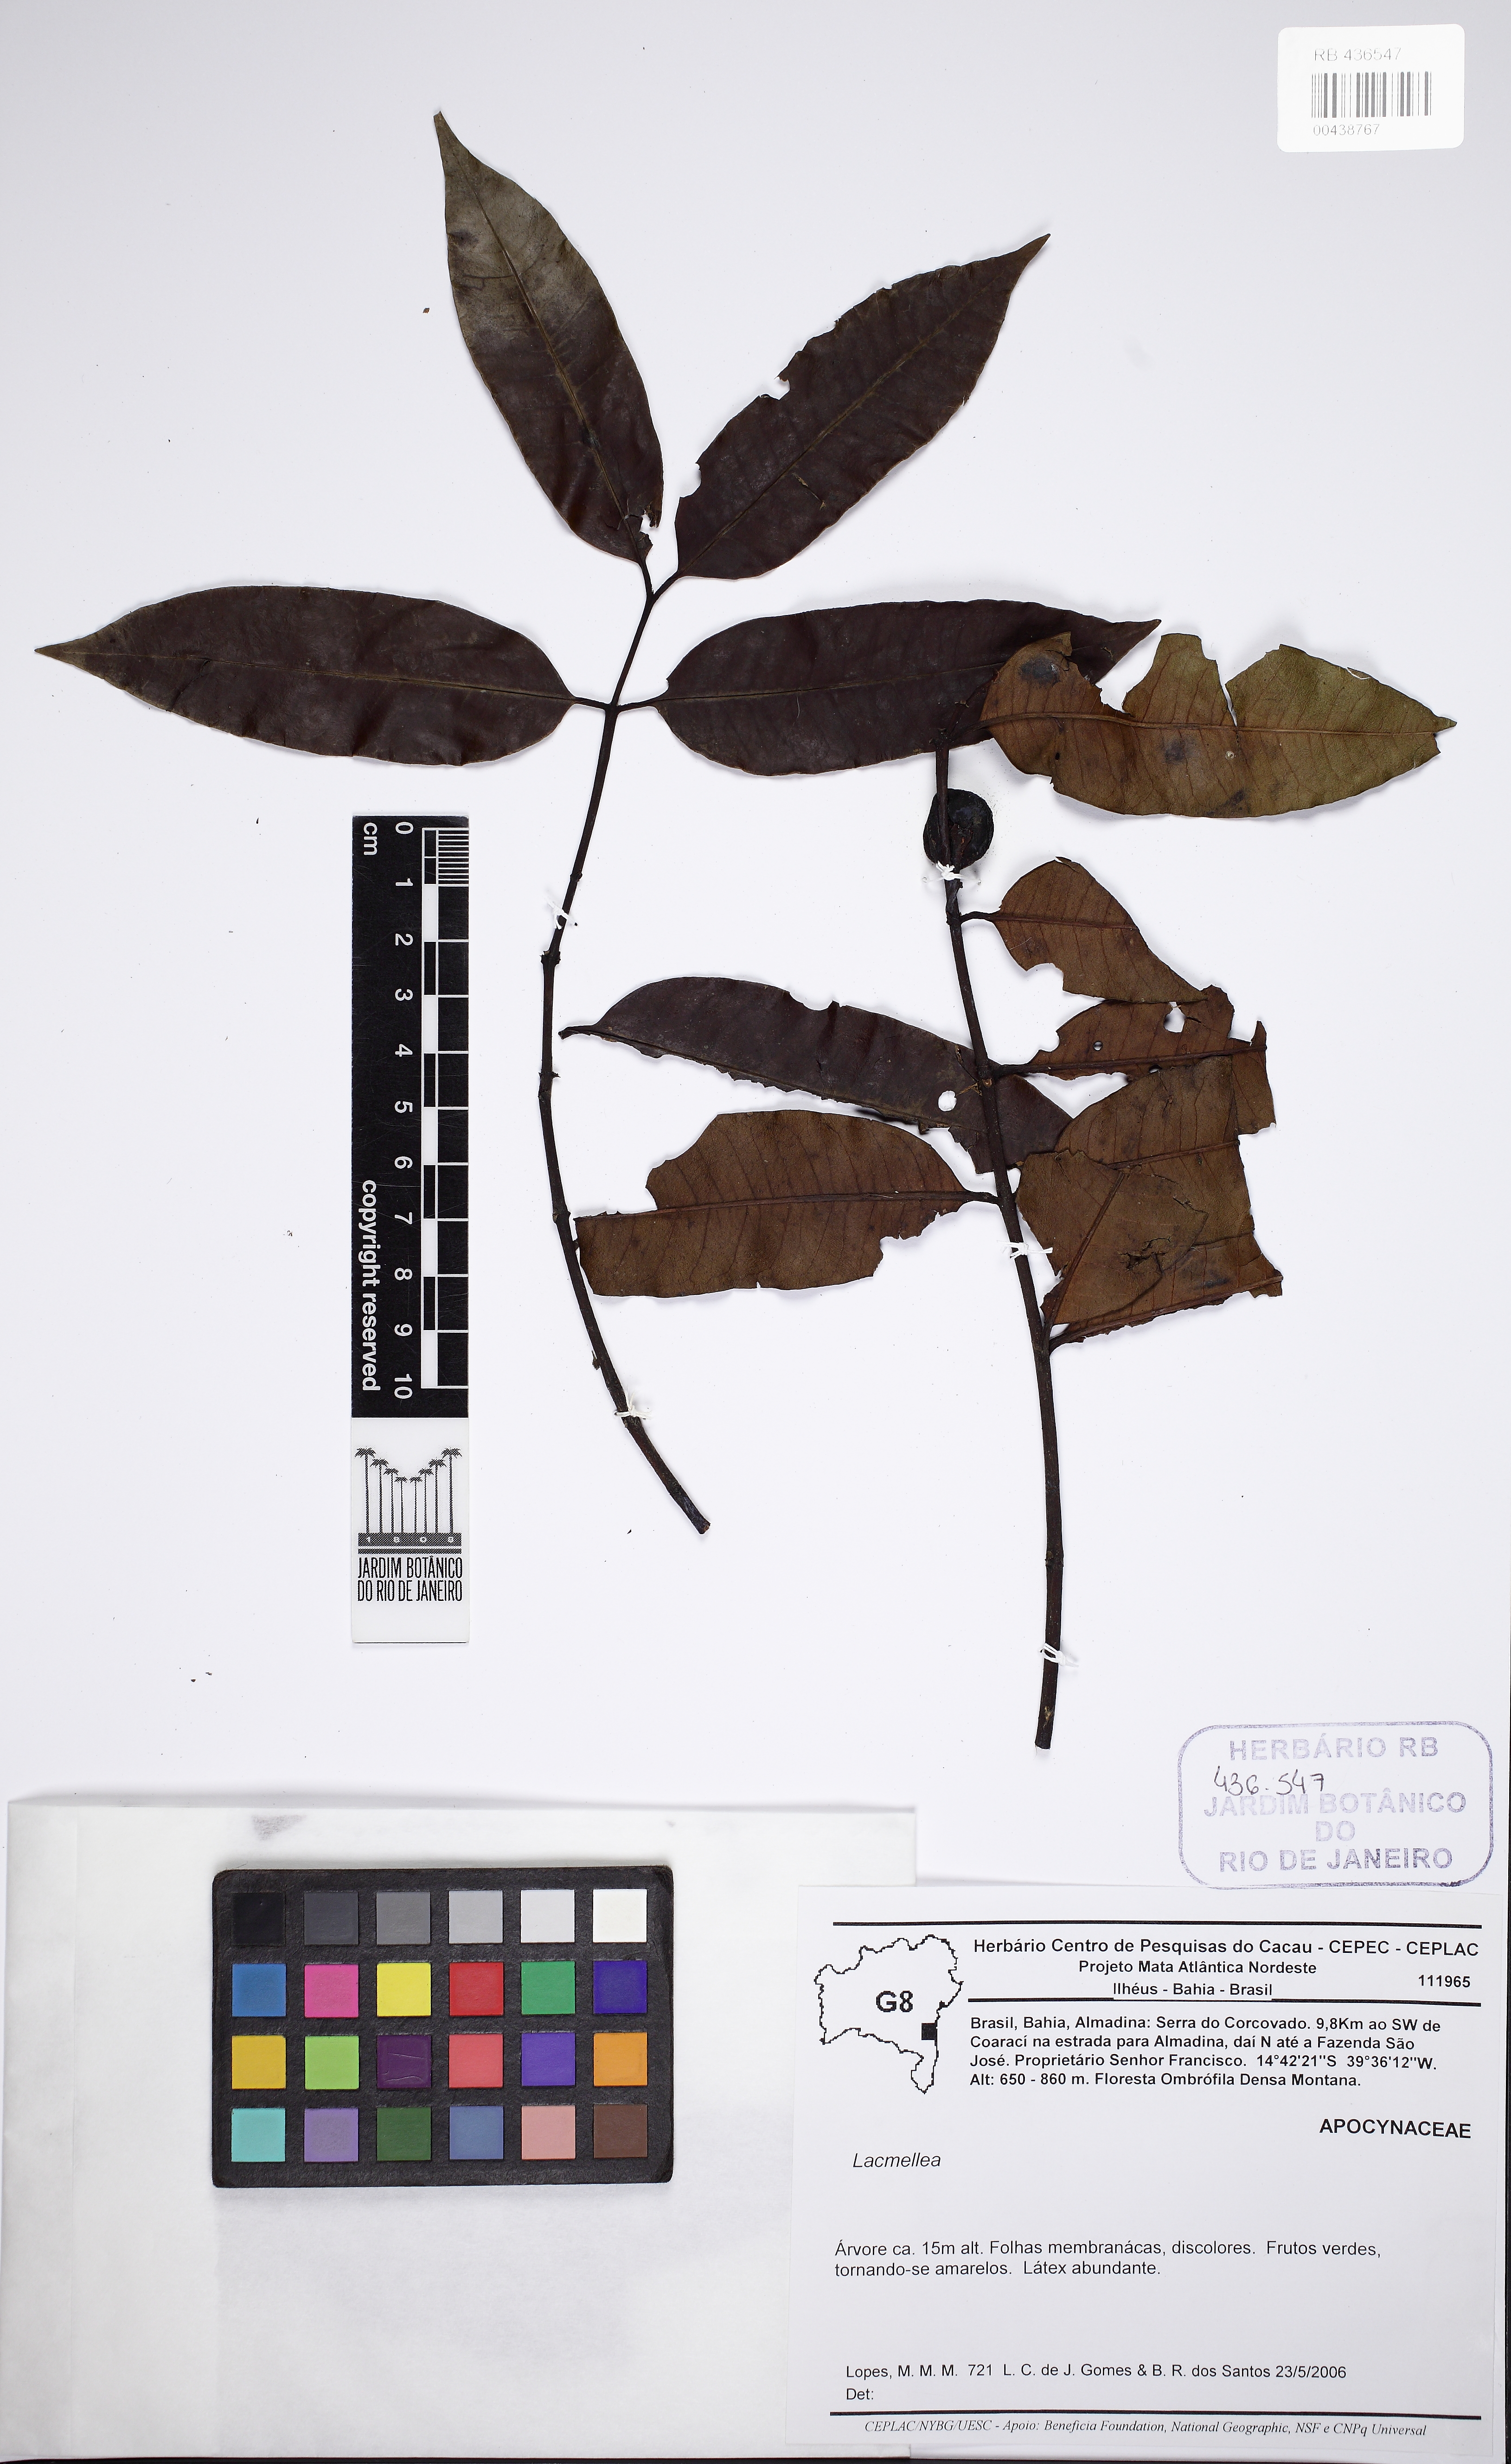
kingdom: Plantae
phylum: Tracheophyta
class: Magnoliopsida
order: Gentianales
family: Apocynaceae
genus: Lacmellea
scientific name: Lacmellea
